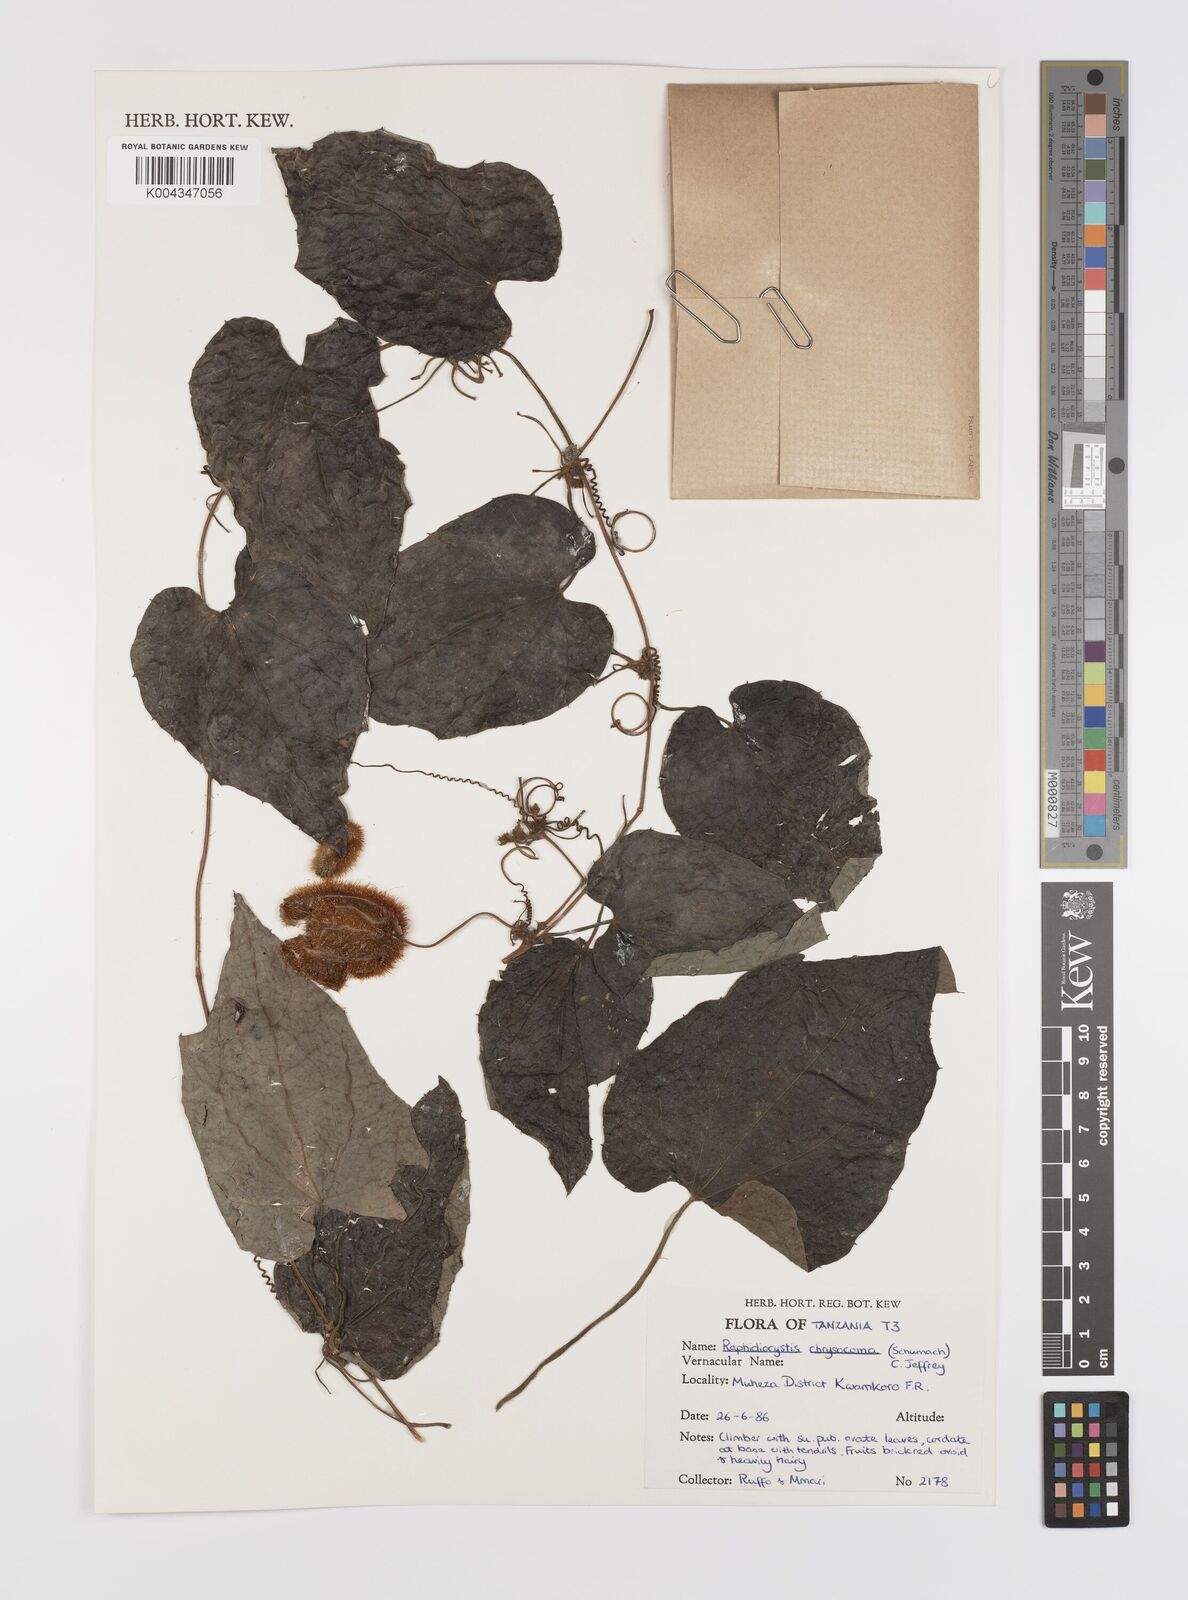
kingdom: Plantae
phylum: Tracheophyta
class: Magnoliopsida
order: Cucurbitales
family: Cucurbitaceae
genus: Raphidiocystis
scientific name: Raphidiocystis chrysocoma
